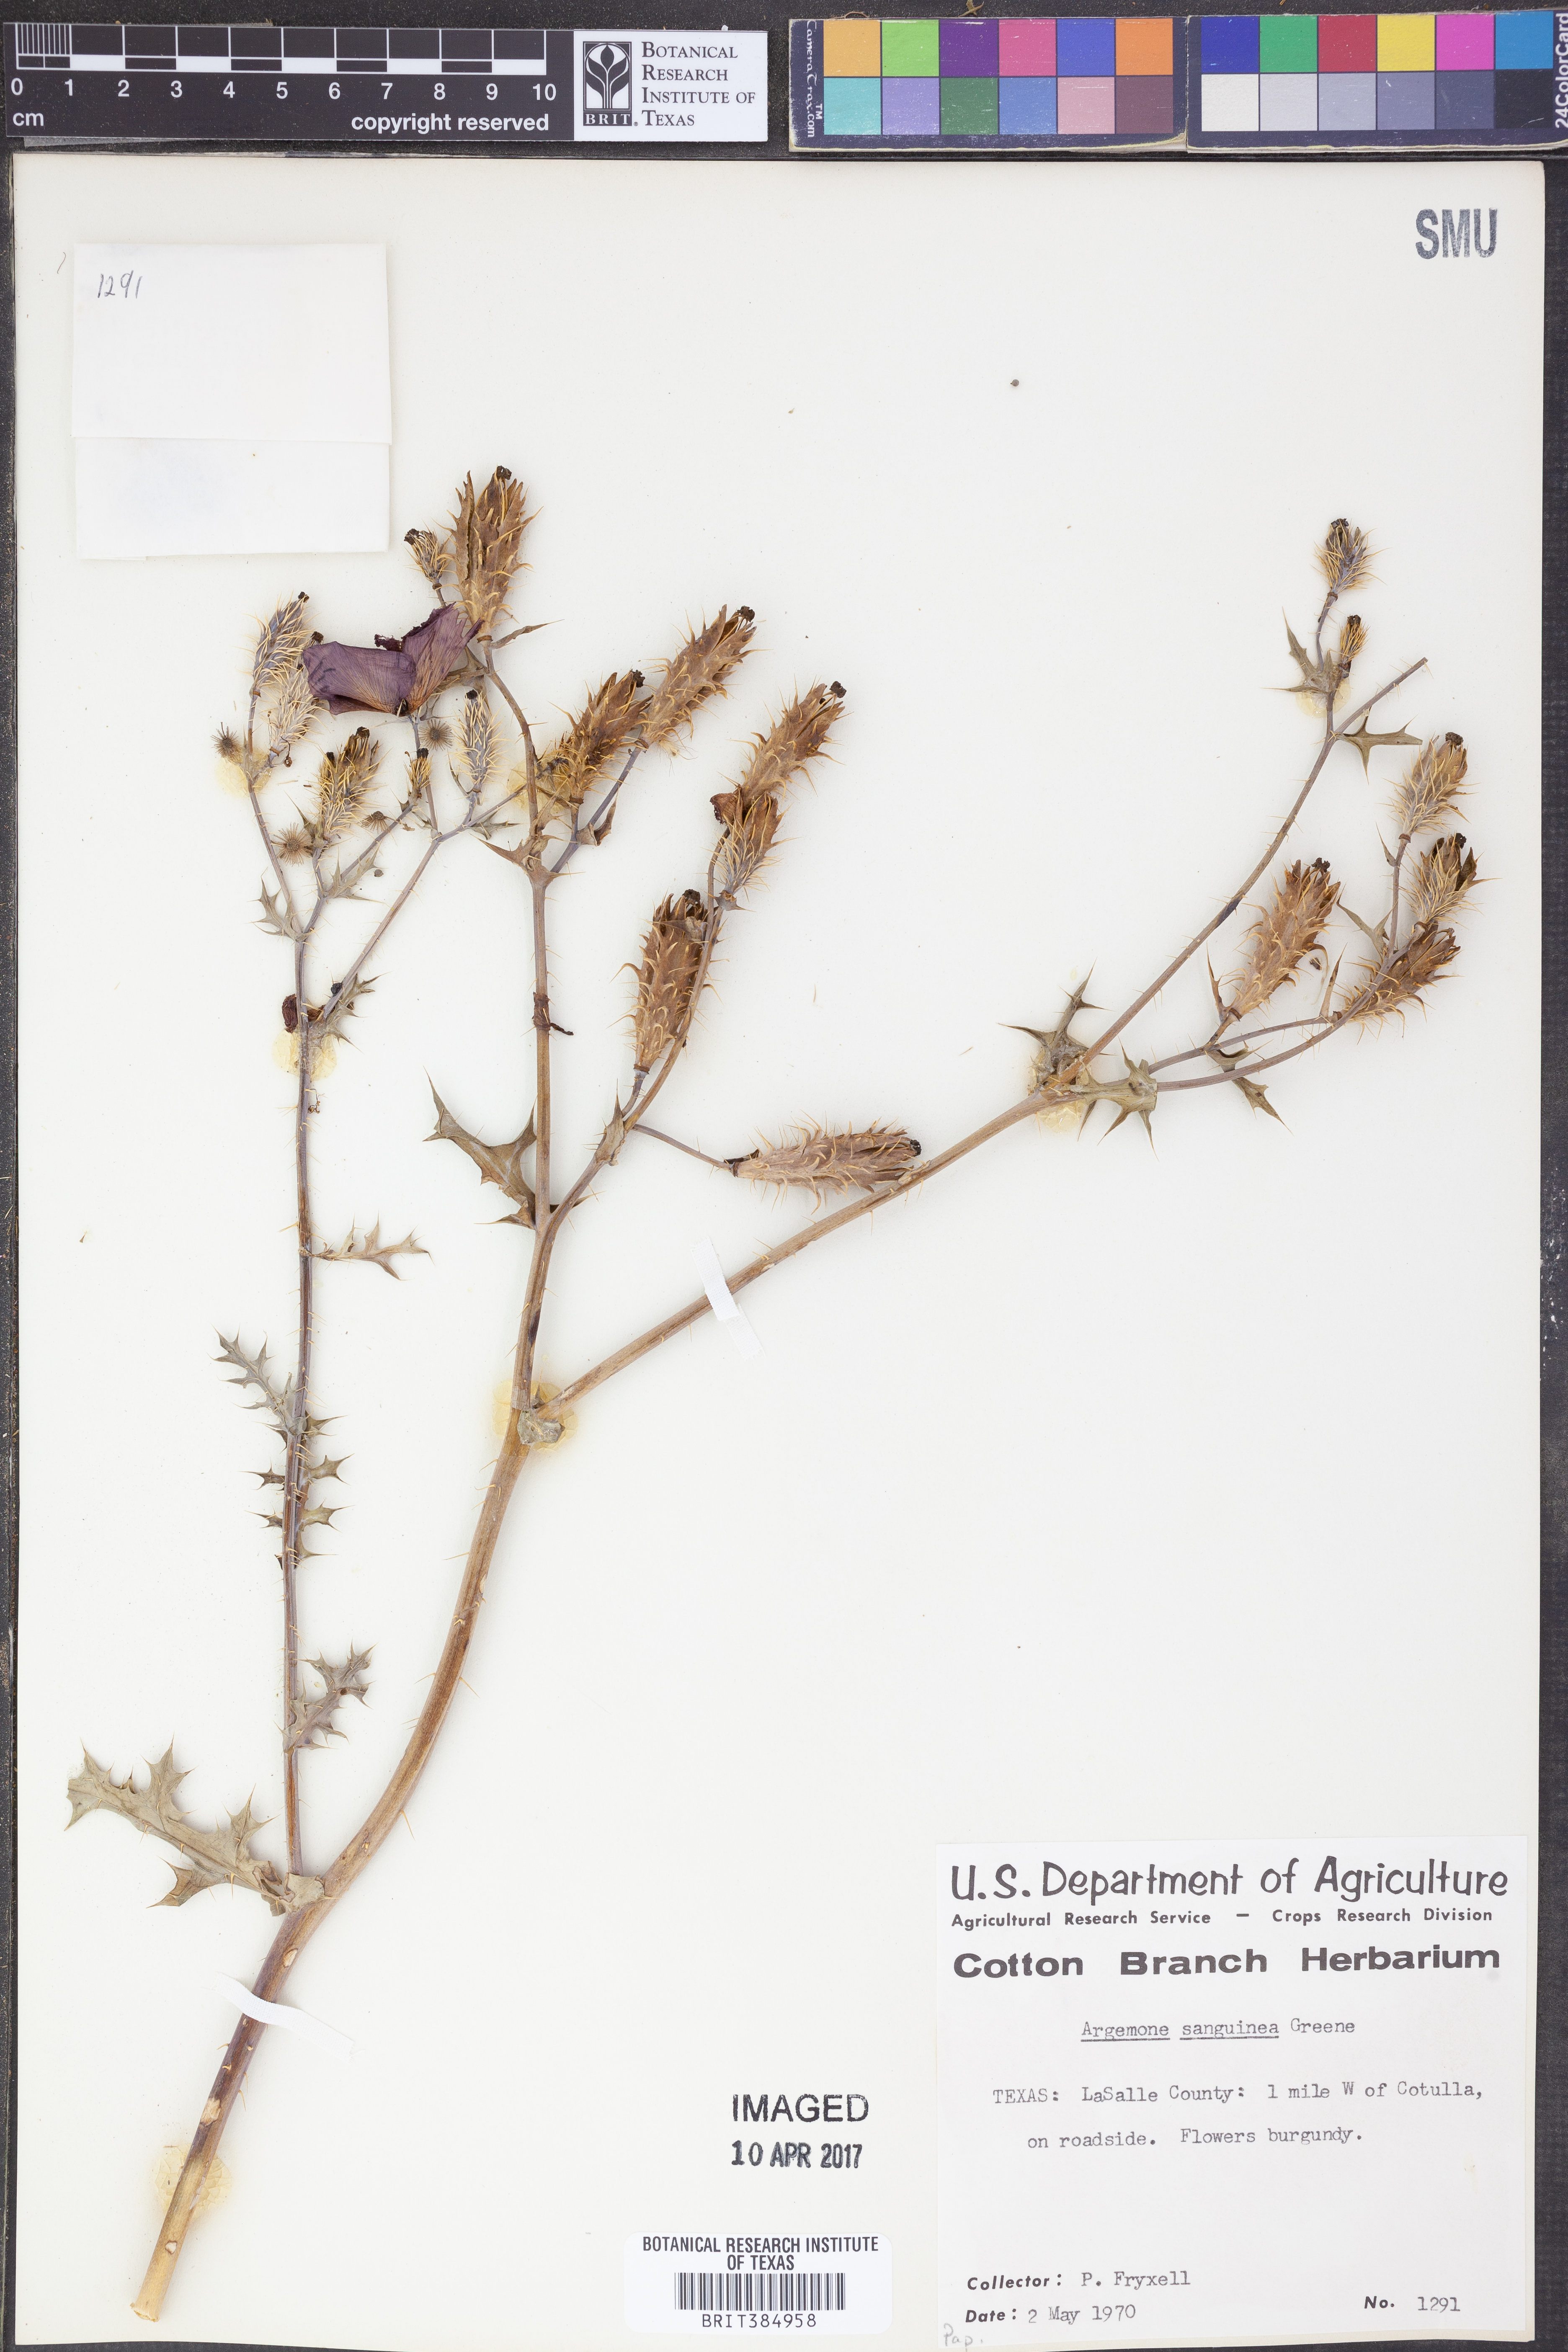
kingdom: Plantae
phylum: Tracheophyta
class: Magnoliopsida
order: Ranunculales
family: Papaveraceae
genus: Argemone
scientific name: Argemone sanguinea
